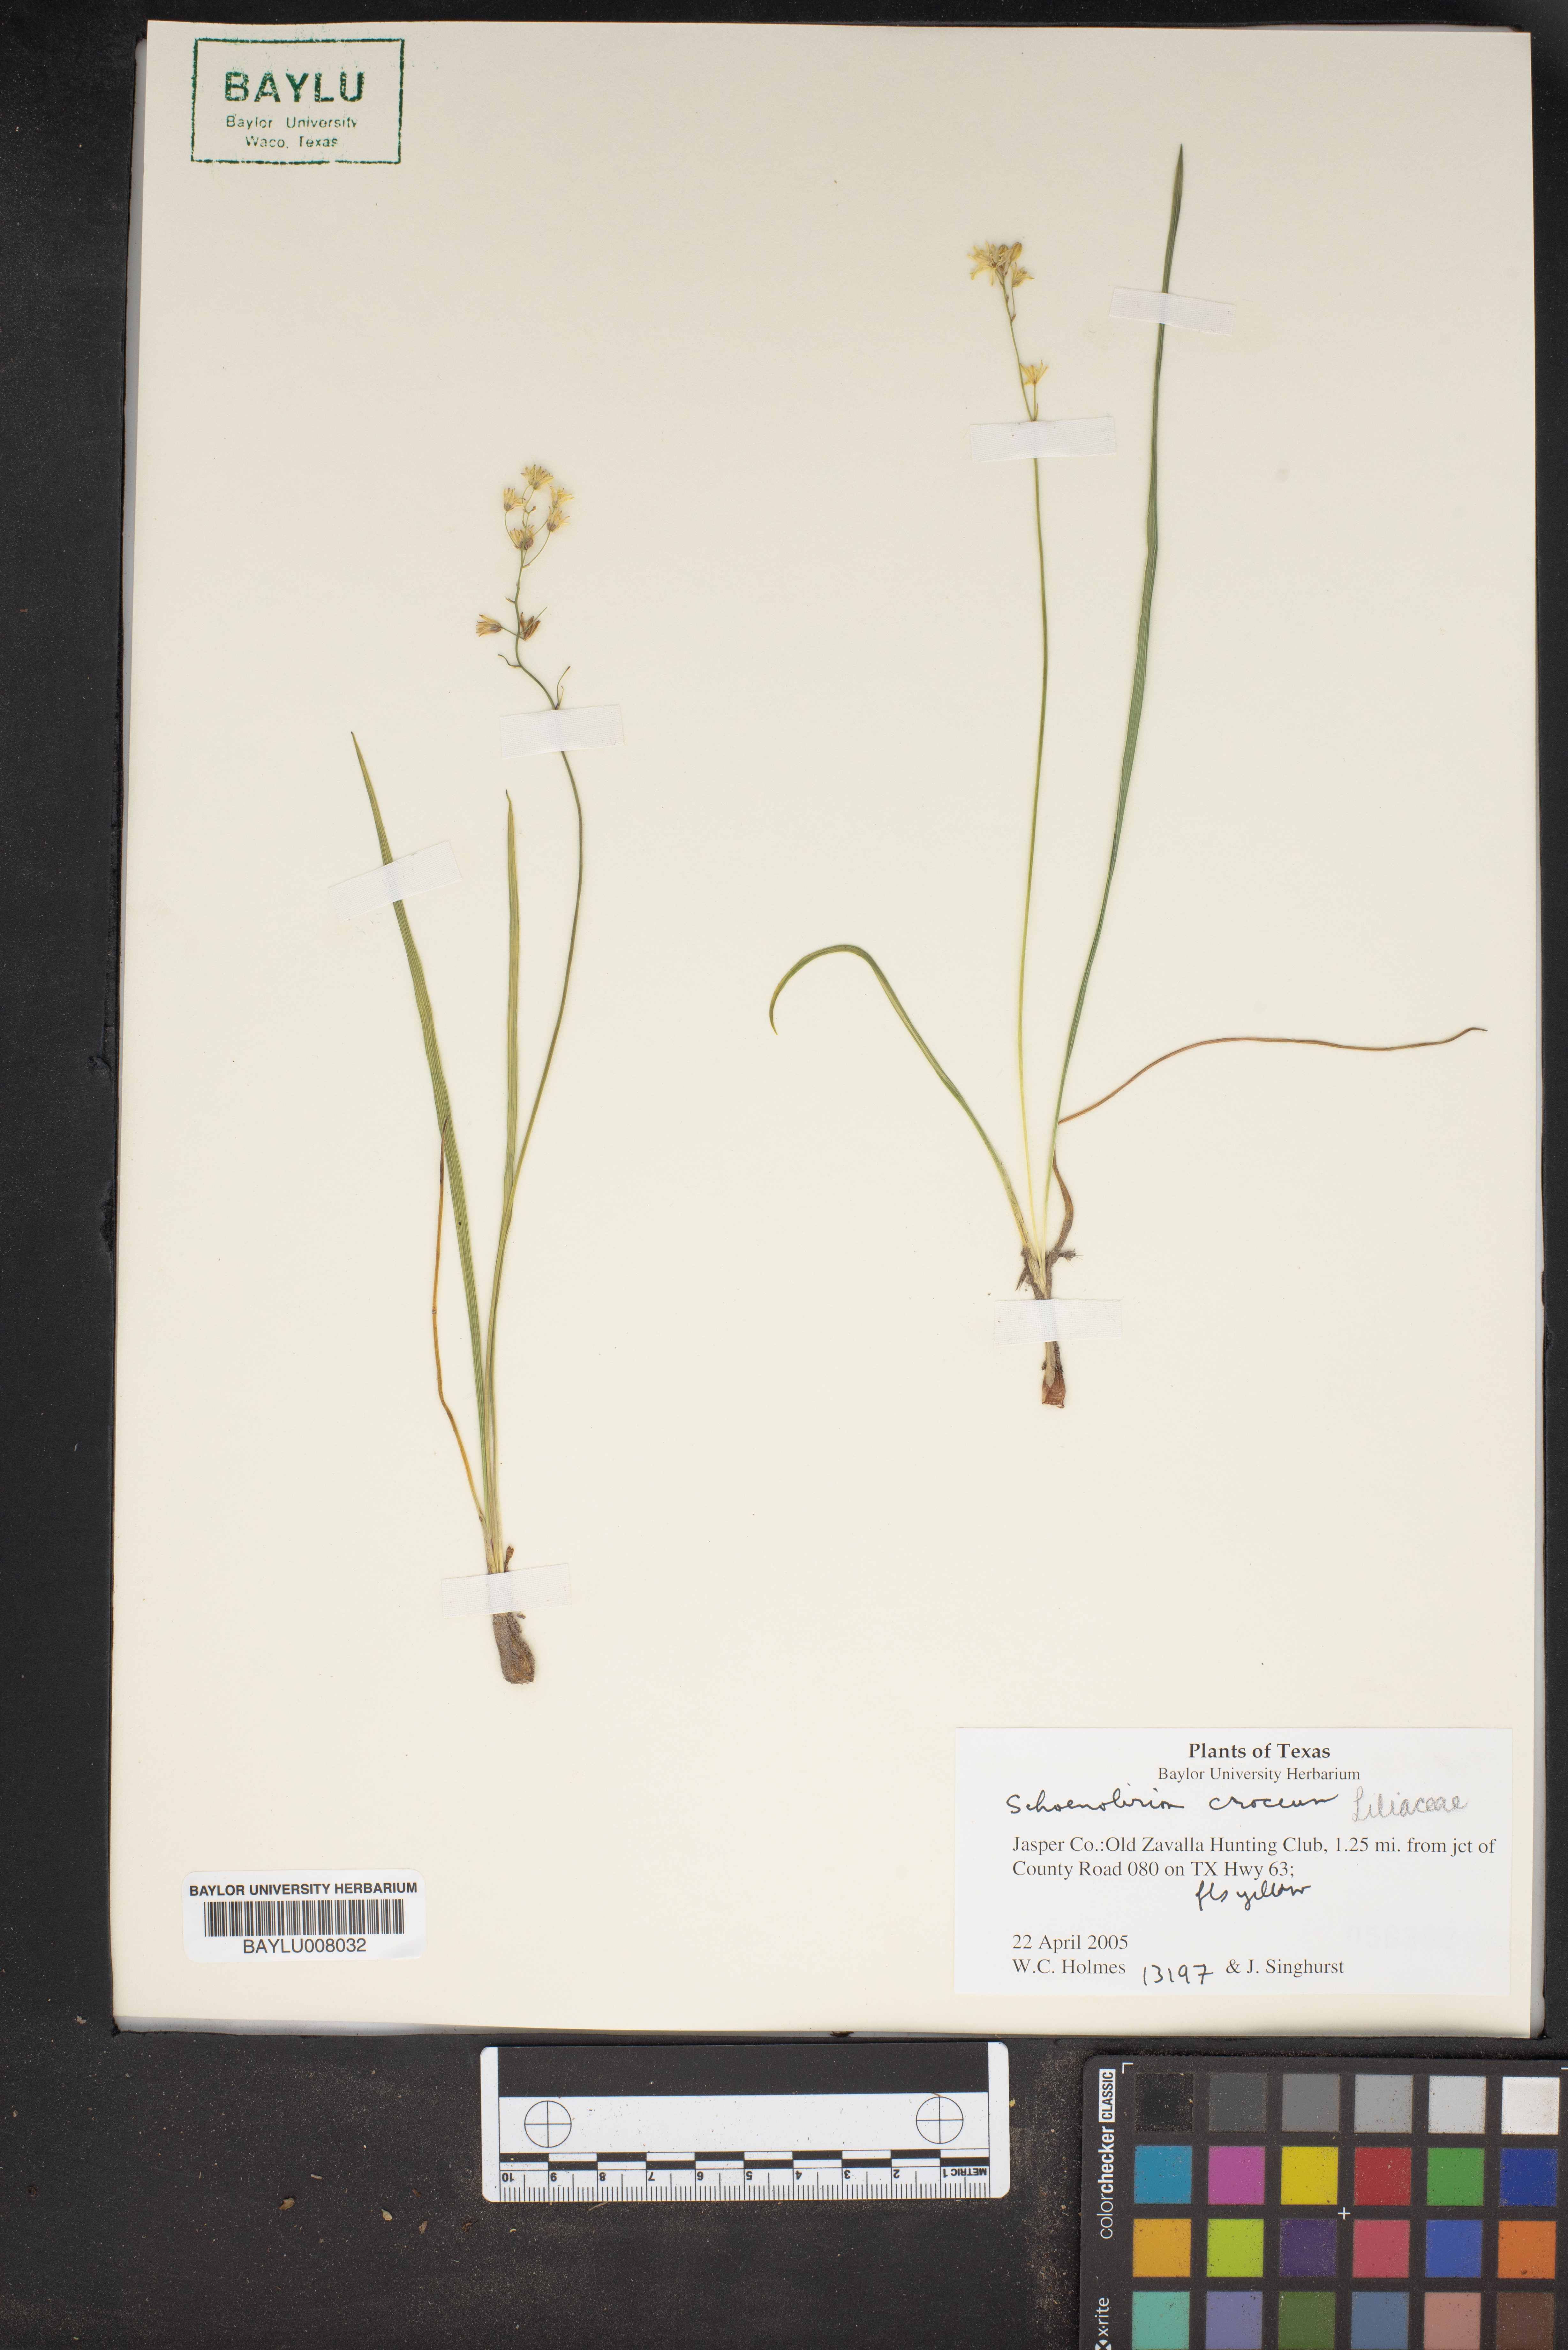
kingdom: Plantae
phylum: Tracheophyta
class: Liliopsida
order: Asparagales
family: Asparagaceae
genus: Schoenolirion
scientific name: Schoenolirion croceum
